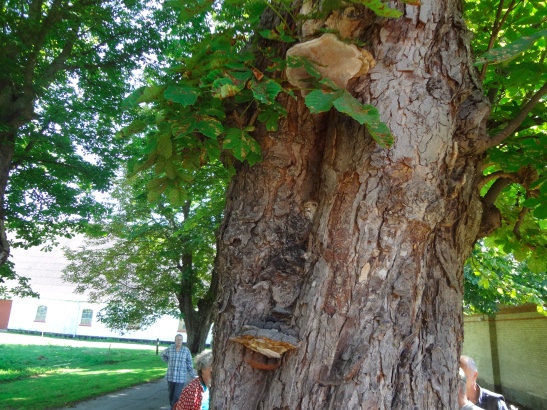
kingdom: Fungi
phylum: Basidiomycota
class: Agaricomycetes
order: Polyporales
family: Polyporaceae
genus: Ganoderma
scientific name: Ganoderma adspersum
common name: grov lakporesvamp
